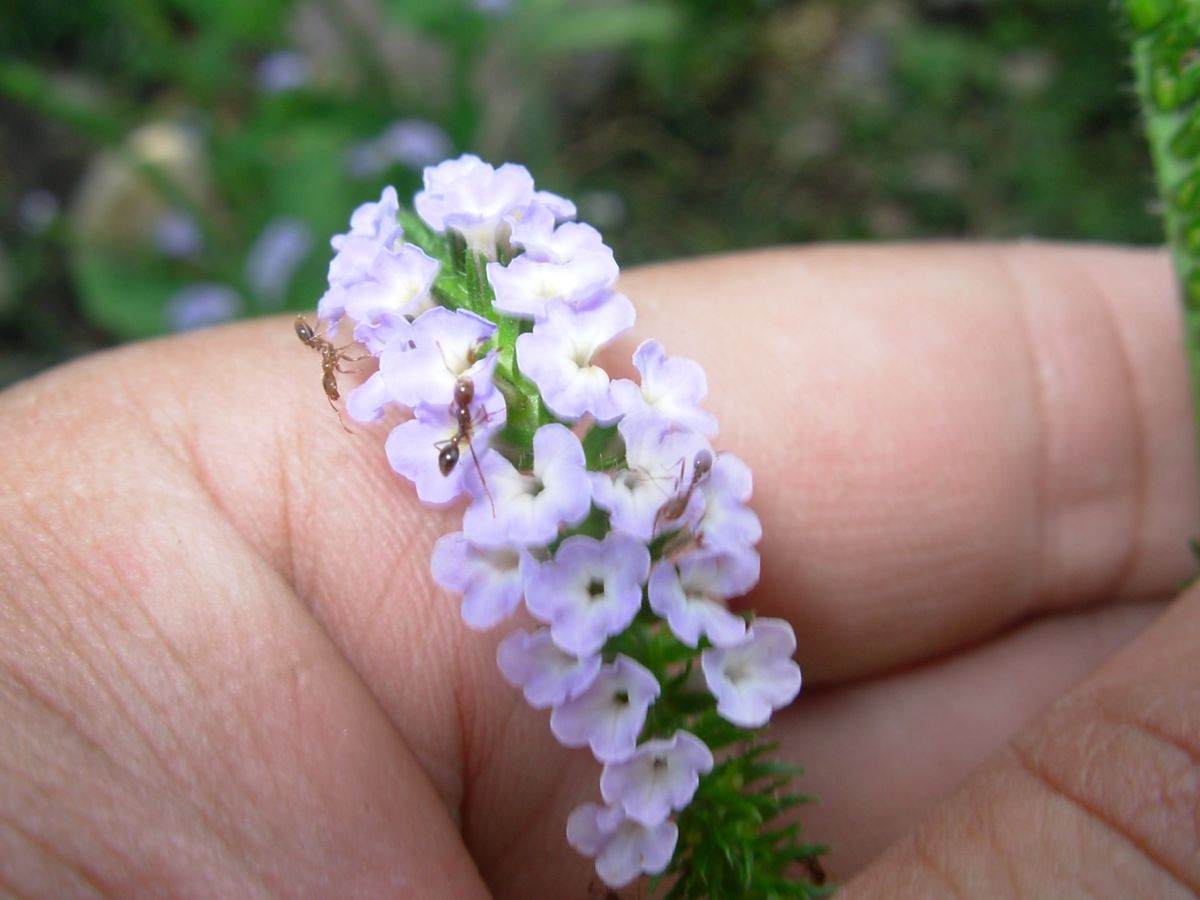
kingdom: Plantae
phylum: Tracheophyta
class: Magnoliopsida
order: Boraginales
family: Heliotropiaceae
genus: Heliotropium
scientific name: Heliotropium
